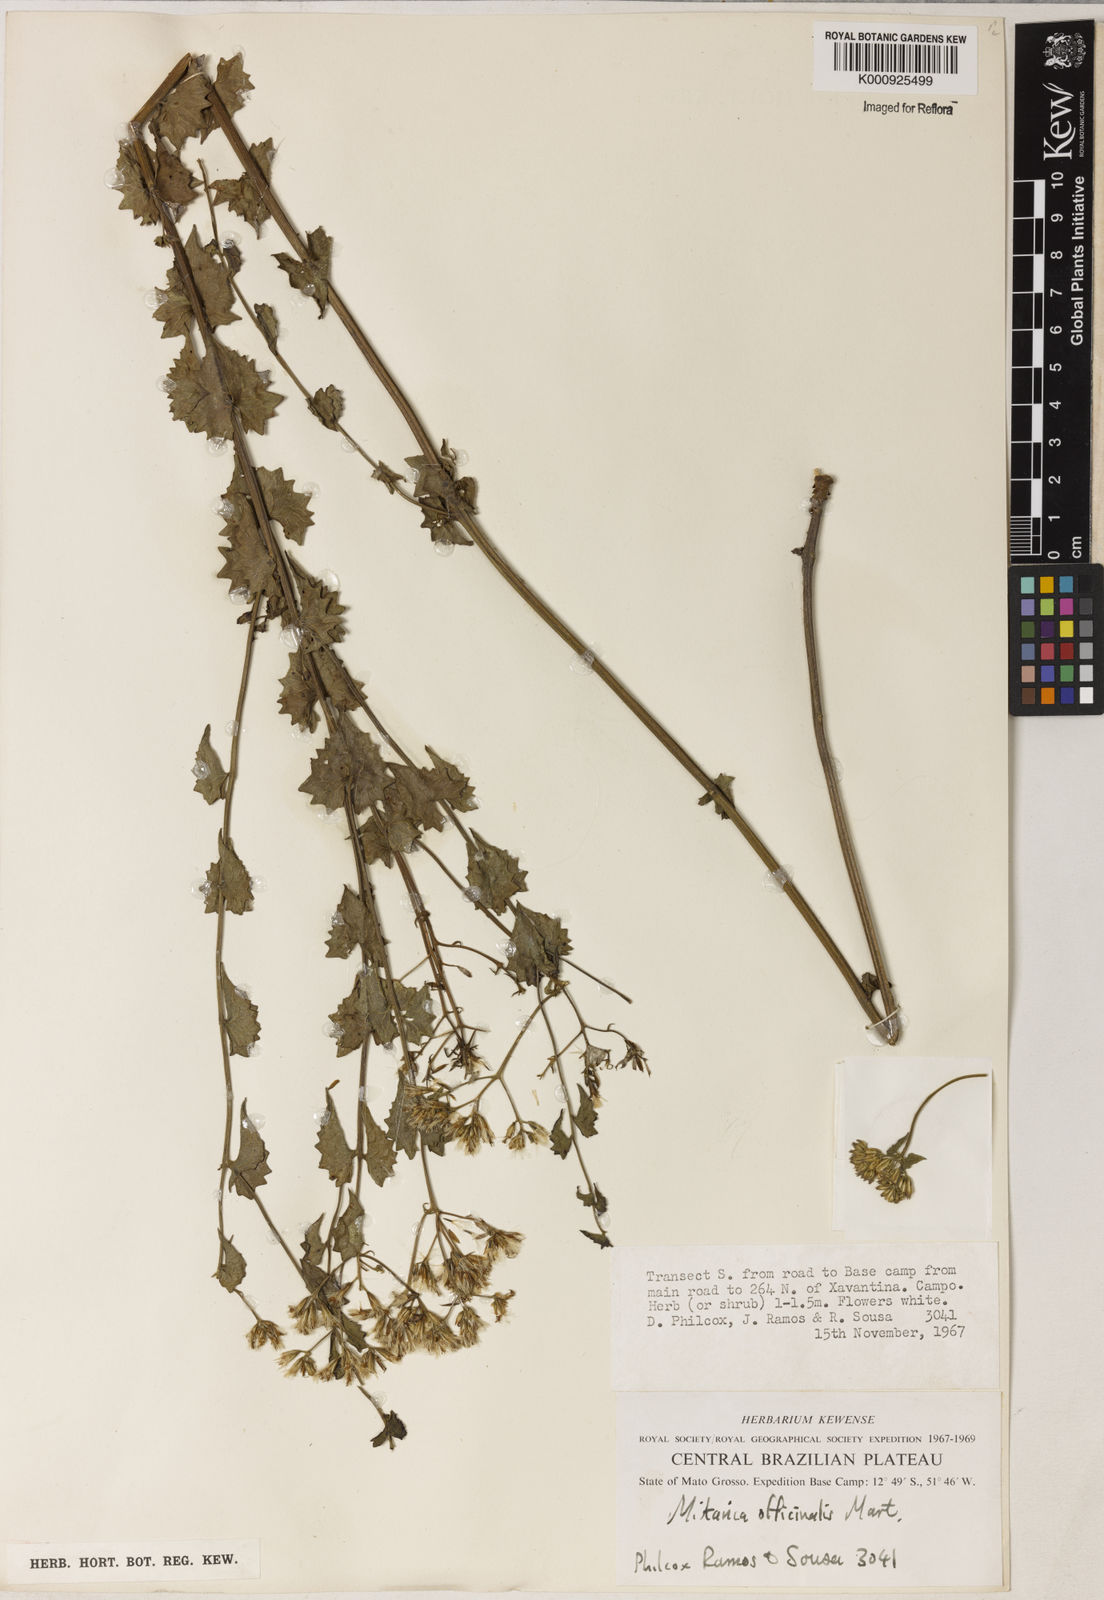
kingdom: Plantae
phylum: Tracheophyta
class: Magnoliopsida
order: Asterales
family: Asteraceae
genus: Mikania
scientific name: Mikania officinalis
